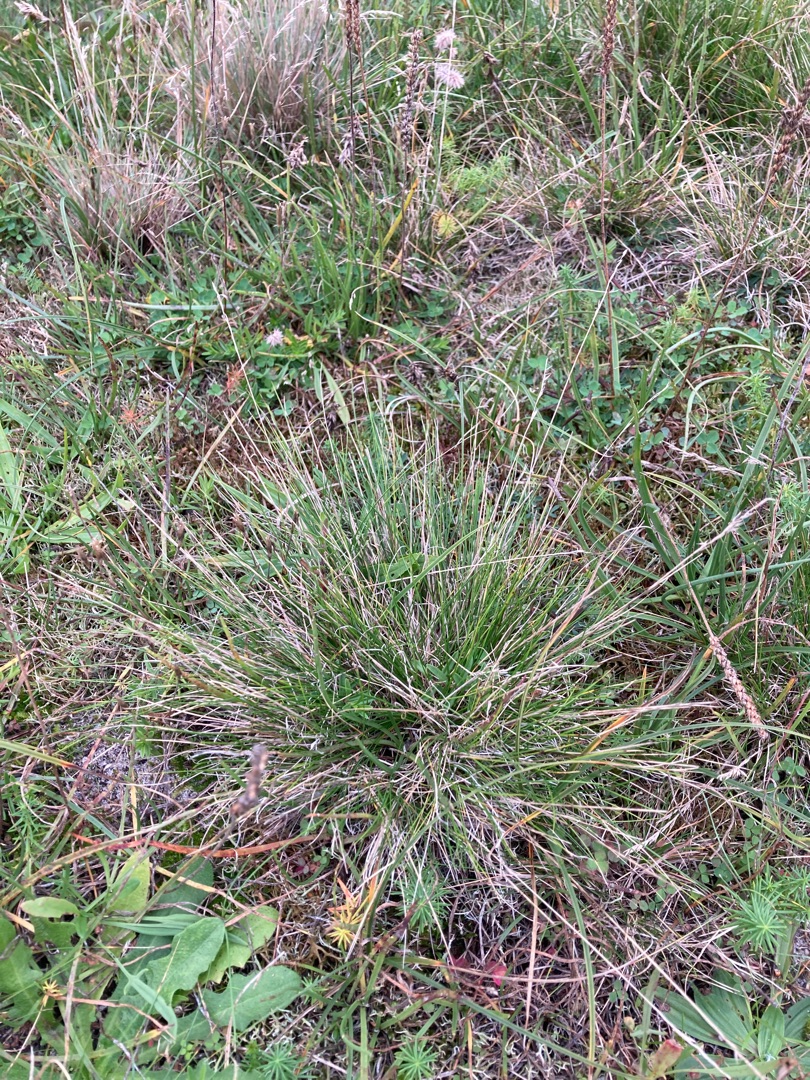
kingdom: Plantae
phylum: Tracheophyta
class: Liliopsida
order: Poales
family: Poaceae
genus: Festuca
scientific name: Festuca ovina
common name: Fåre-svingel
